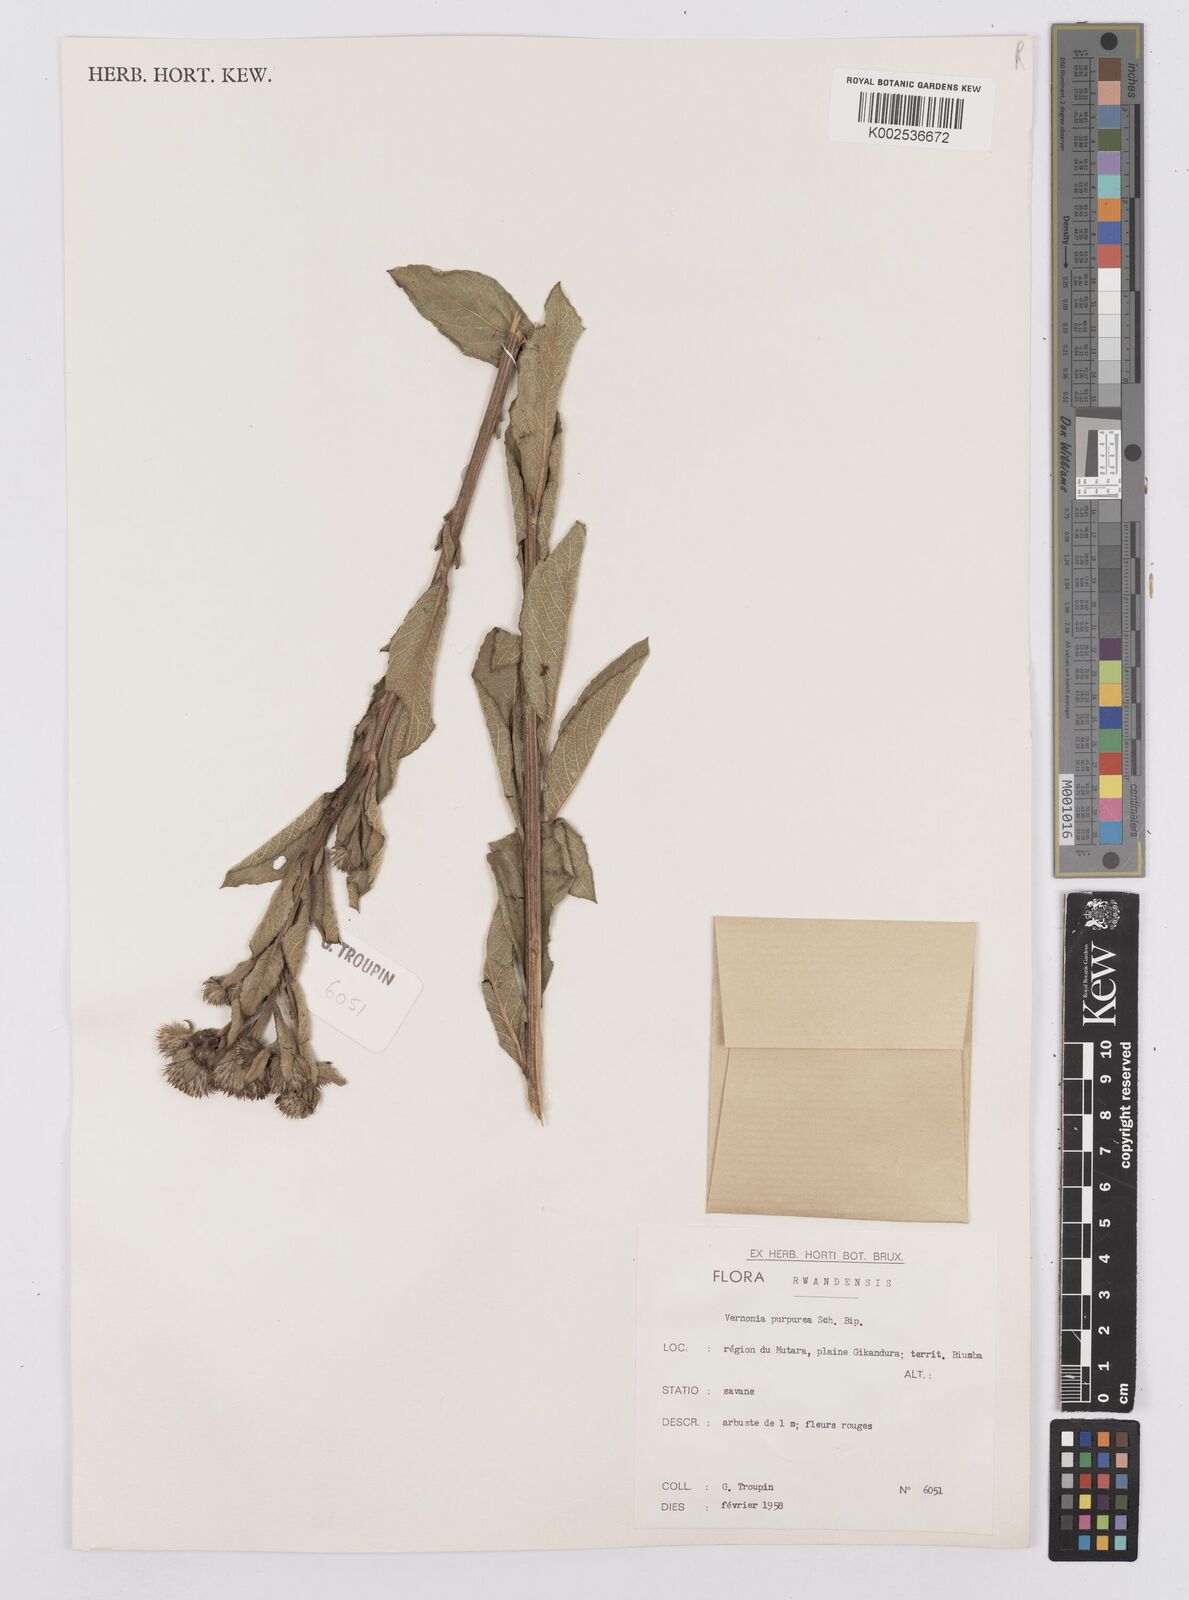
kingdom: Plantae
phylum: Tracheophyta
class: Magnoliopsida
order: Asterales
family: Asteraceae
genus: Nothovernonia
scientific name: Nothovernonia purpurea
